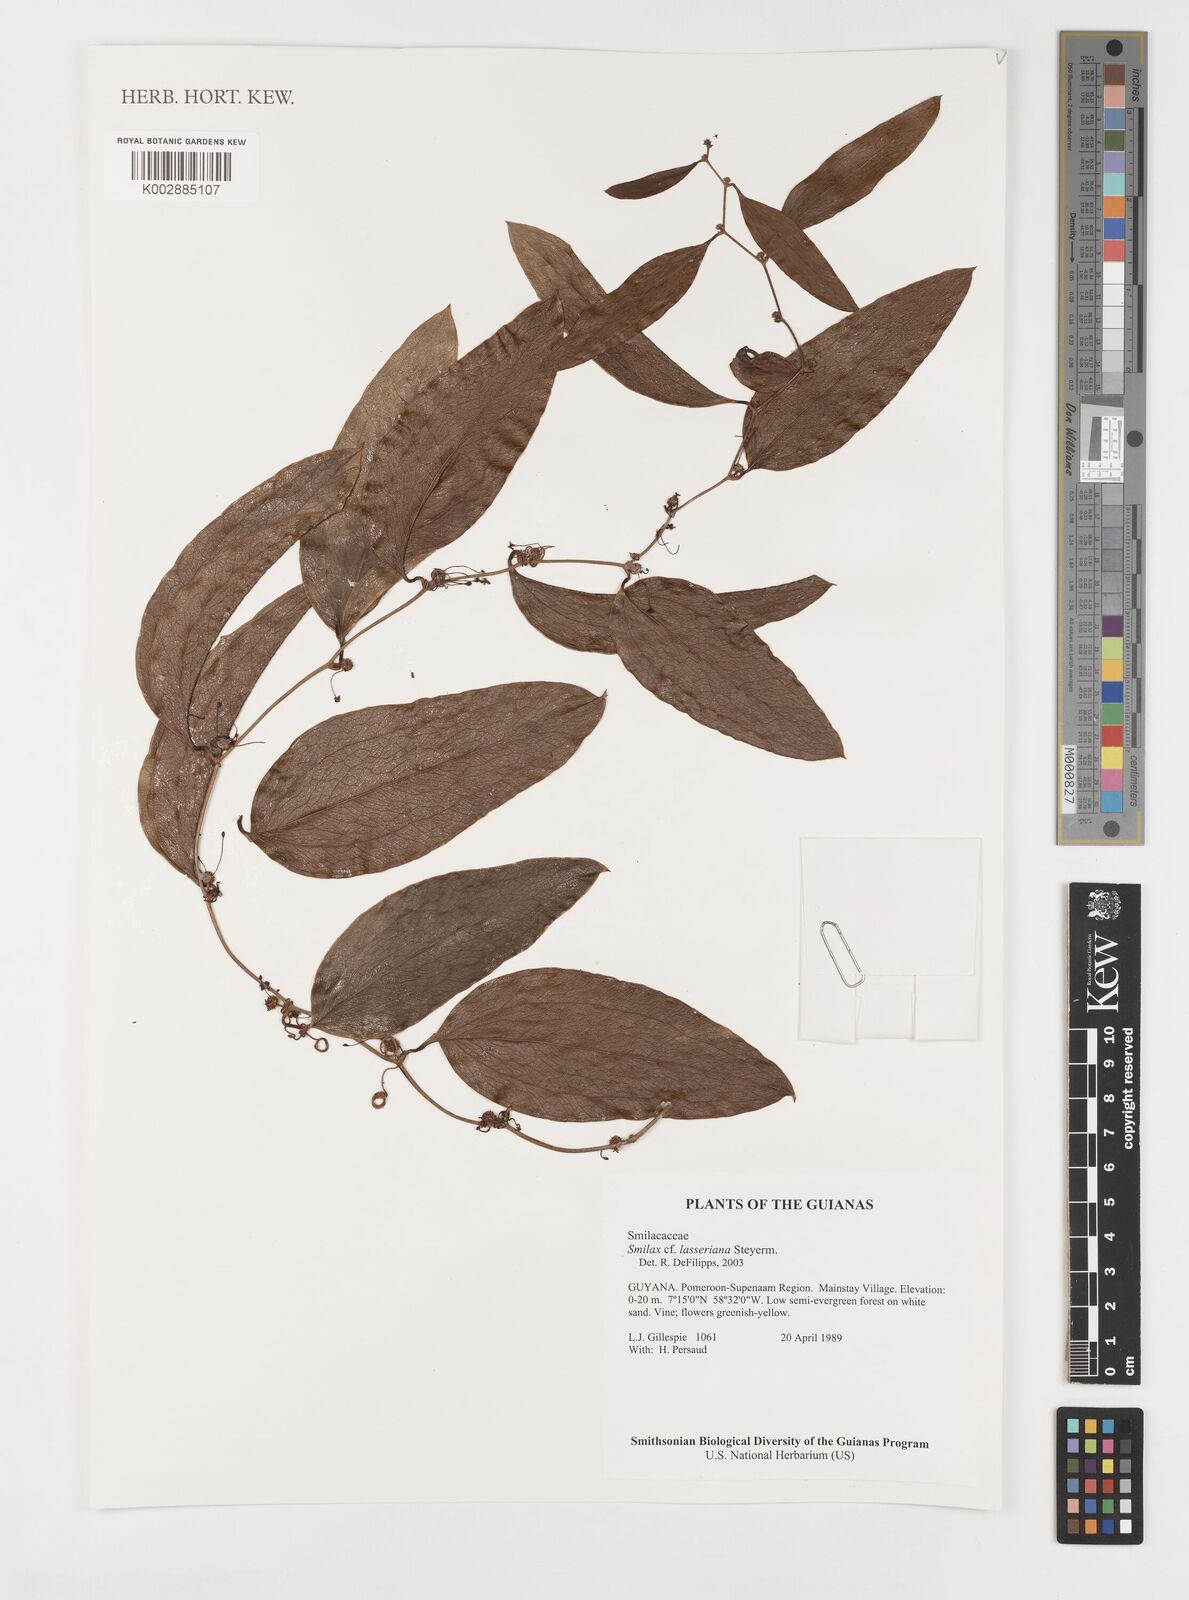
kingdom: Plantae
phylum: Tracheophyta
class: Liliopsida
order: Liliales
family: Smilacaceae
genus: Smilax
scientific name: Smilax domingensis
